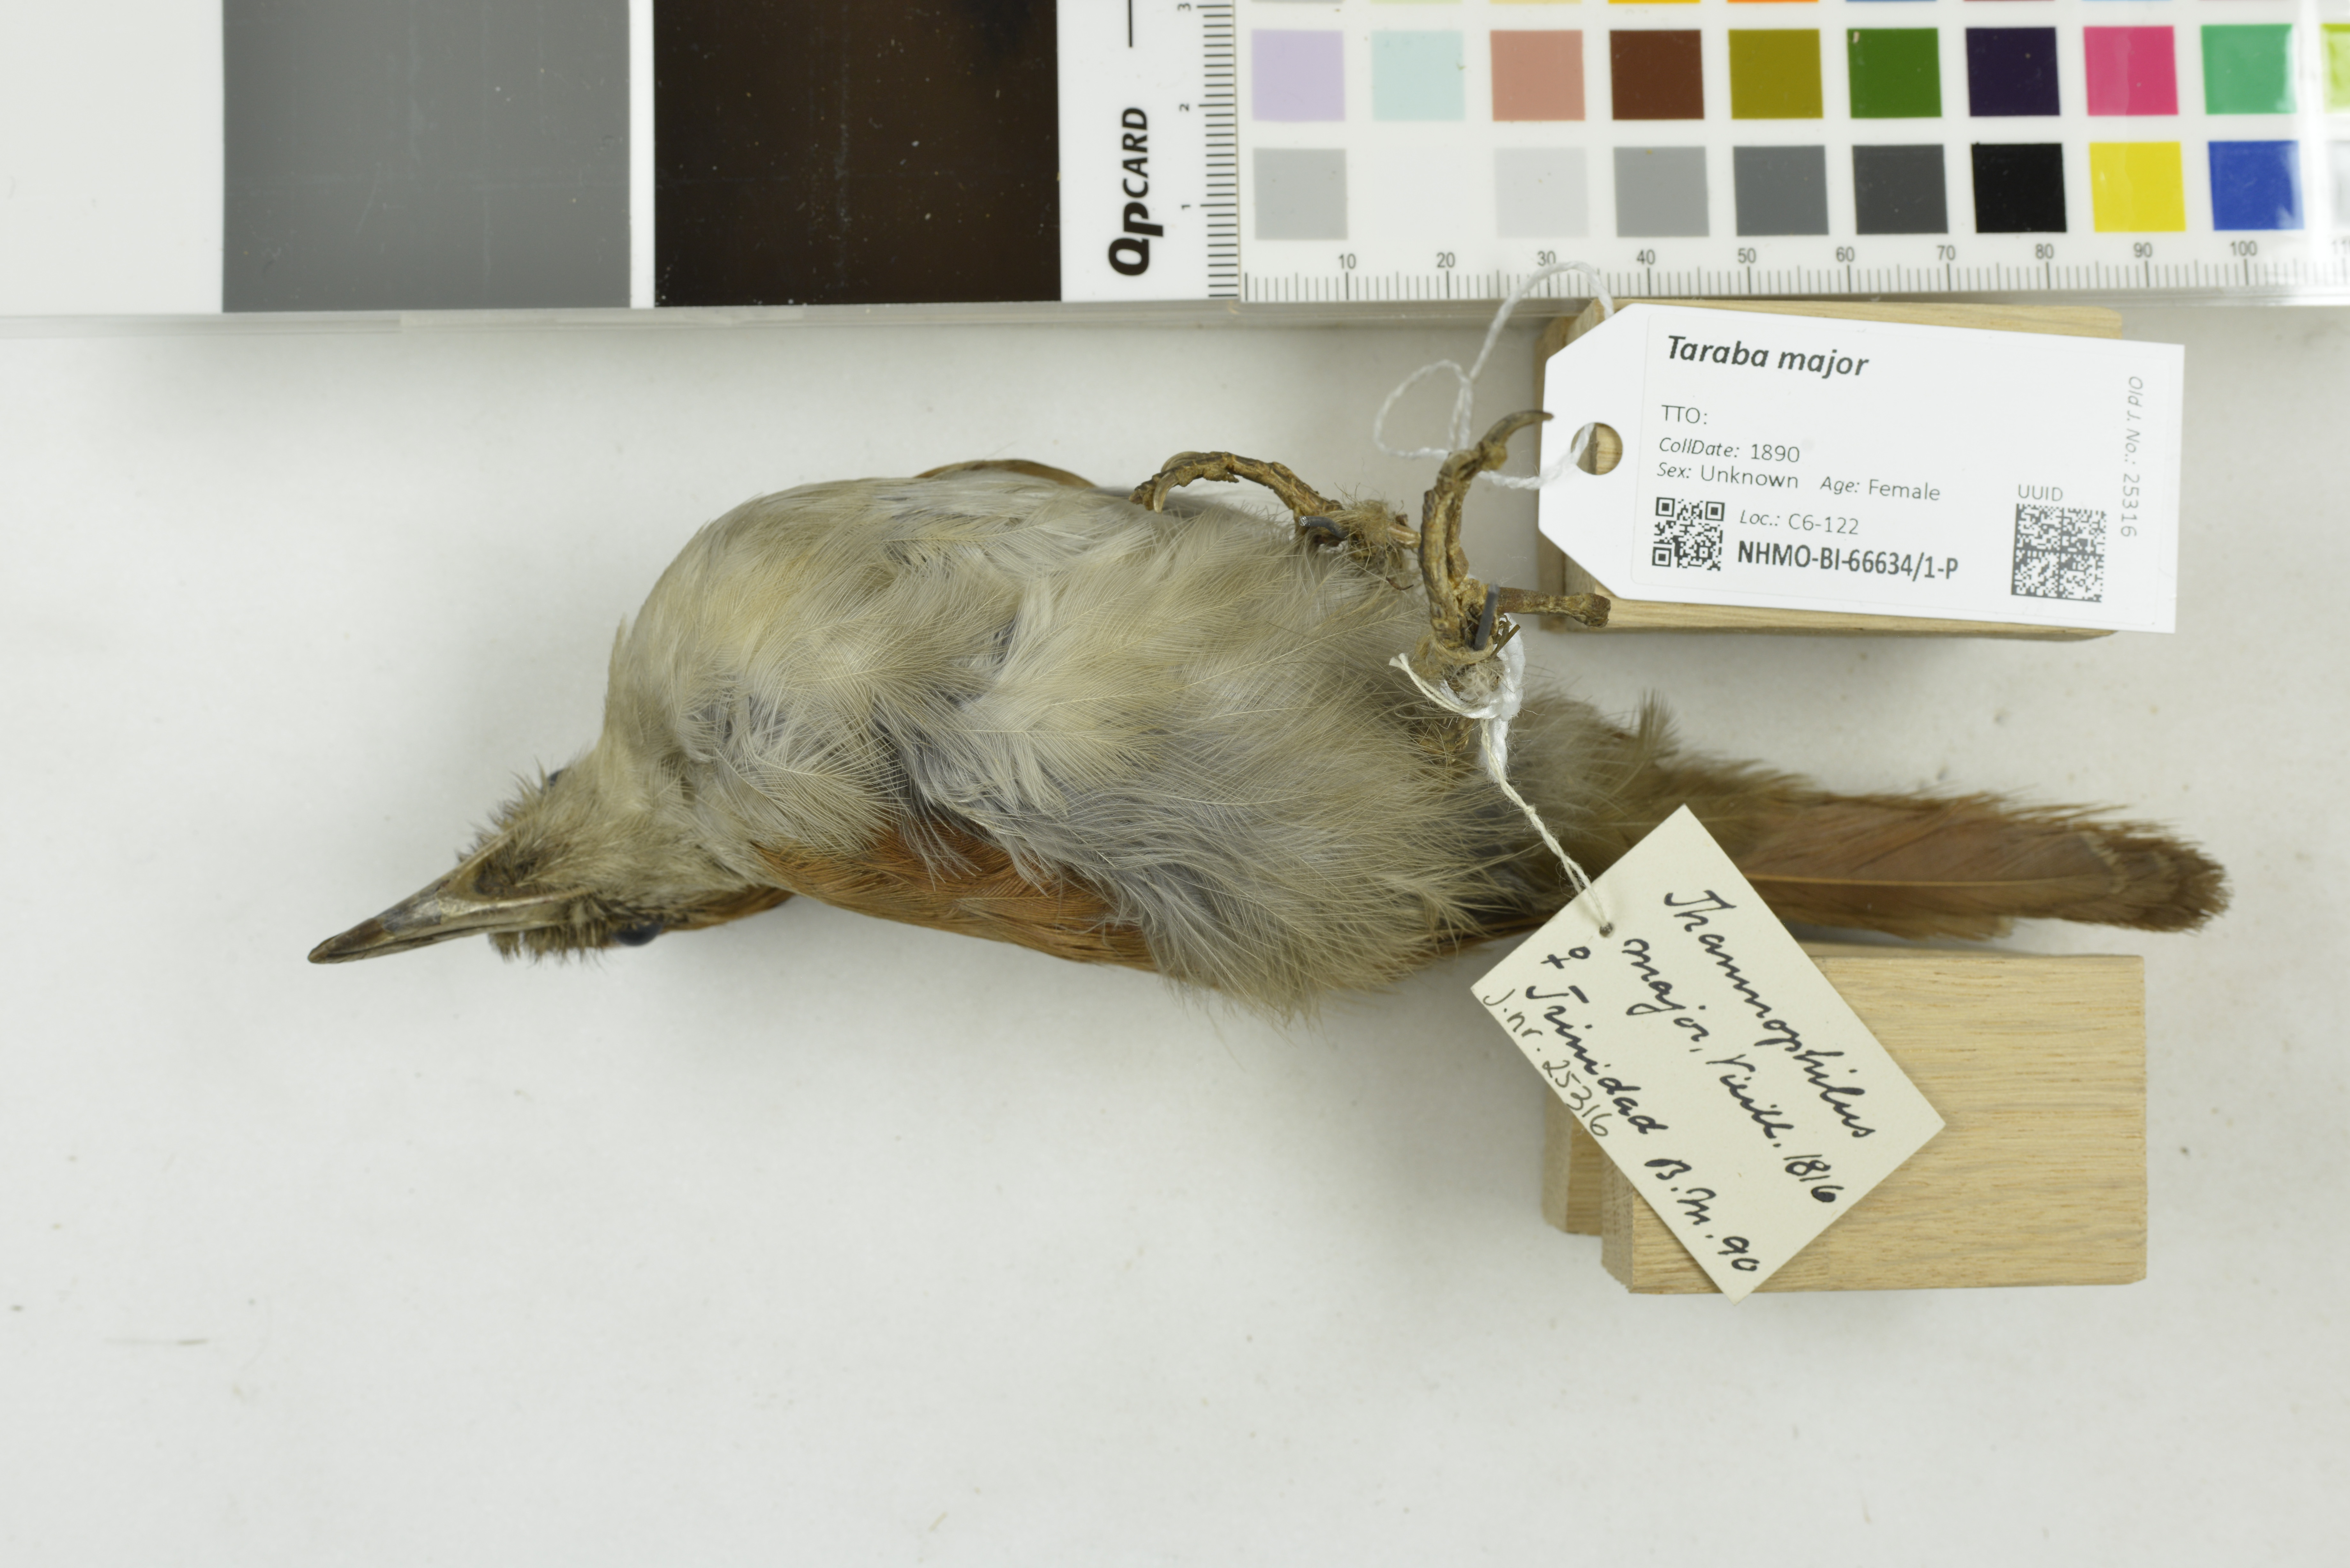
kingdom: Animalia
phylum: Chordata
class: Aves
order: Passeriformes
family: Thamnophilidae
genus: Taraba
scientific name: Taraba major
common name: Great antshrike
